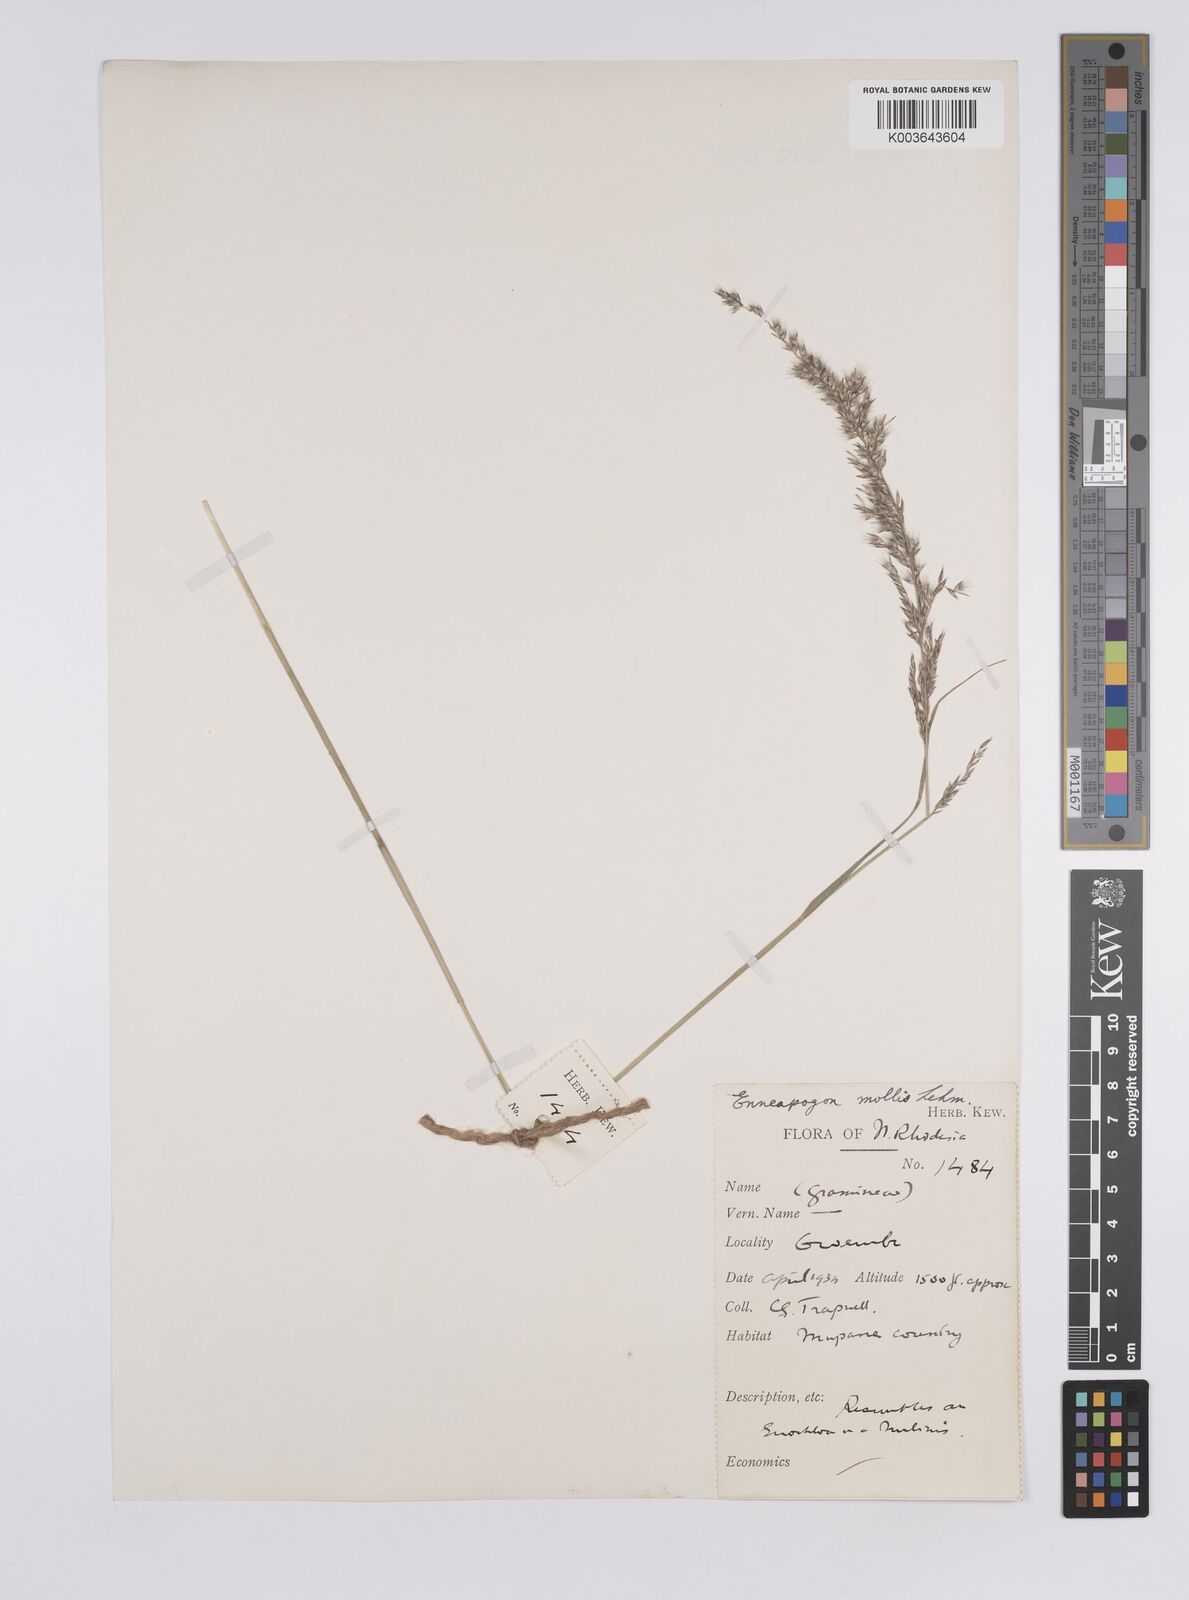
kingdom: Plantae
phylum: Tracheophyta
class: Liliopsida
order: Poales
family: Poaceae
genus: Enneapogon
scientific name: Enneapogon cenchroides
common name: Soft feather pappusgrass
